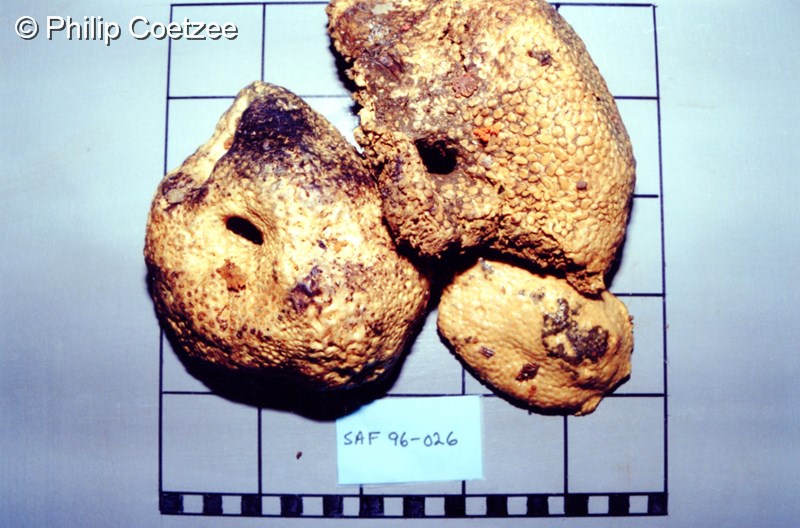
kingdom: Animalia
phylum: Porifera
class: Demospongiae
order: Poecilosclerida
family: Crellidae
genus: Crella
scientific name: Crella erecta
